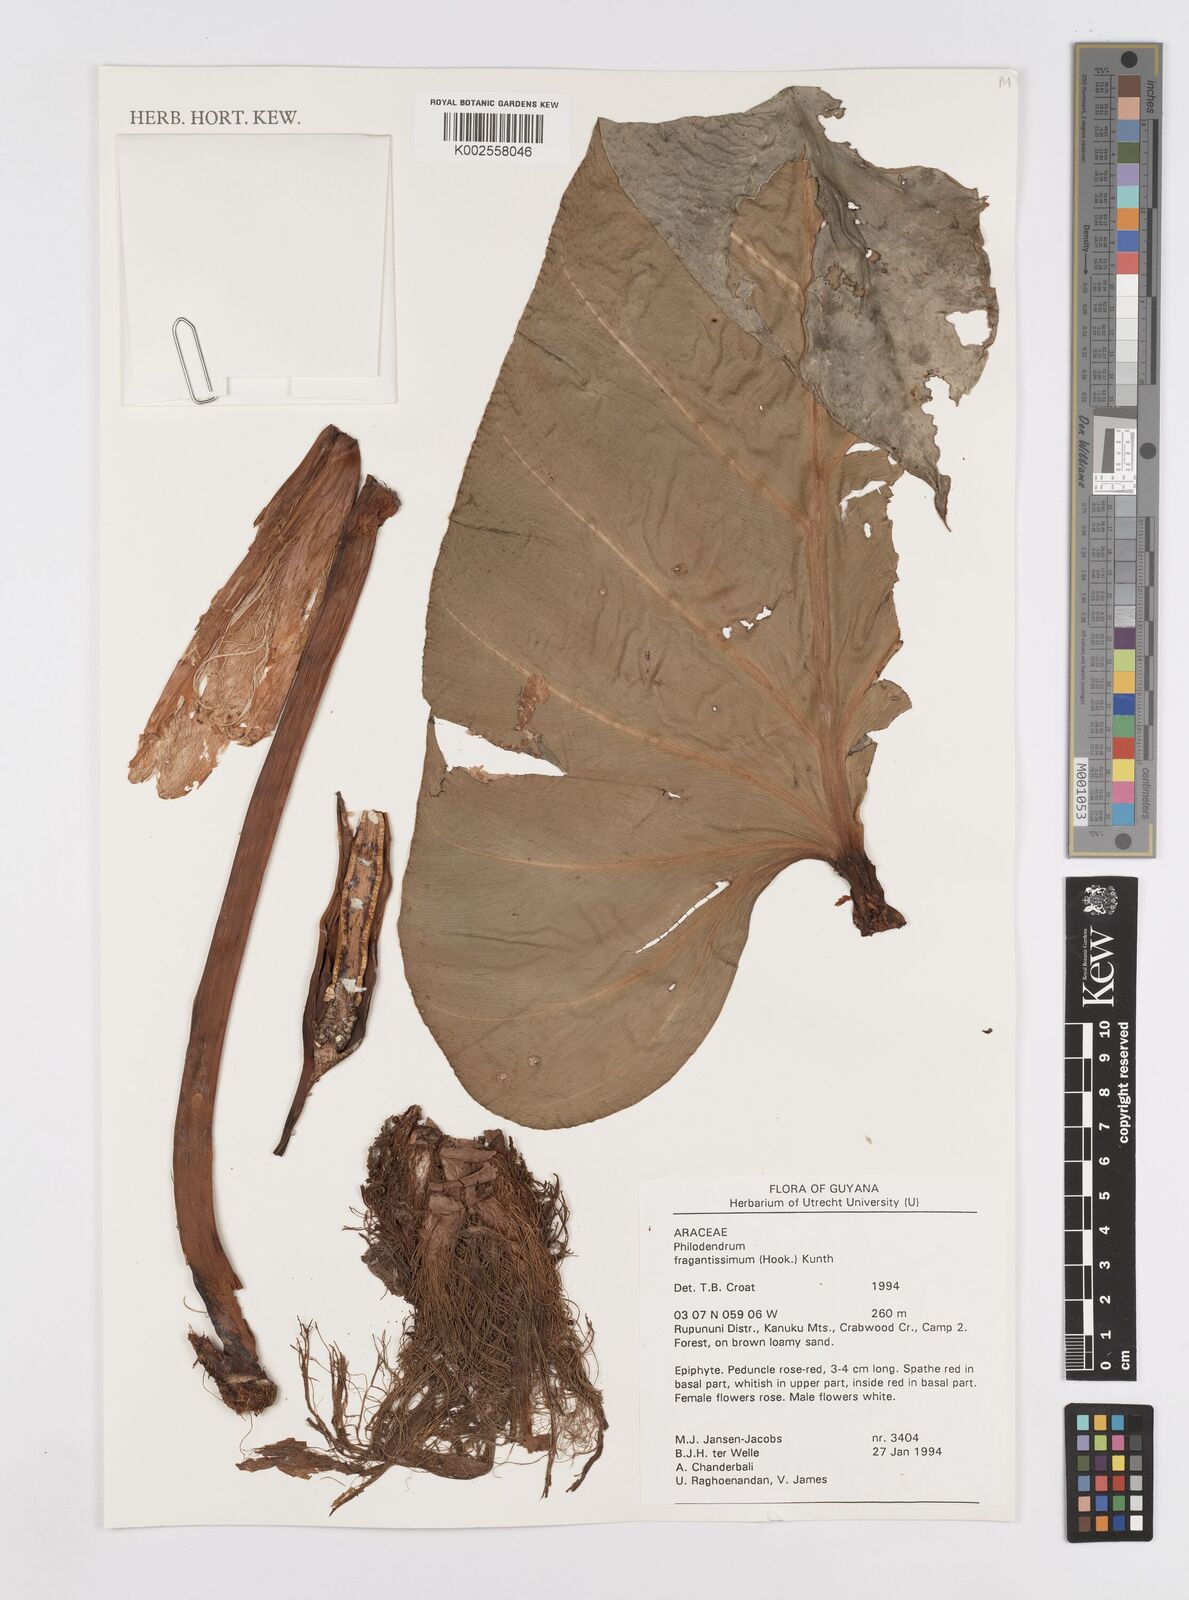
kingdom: Plantae
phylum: Tracheophyta
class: Liliopsida
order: Alismatales
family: Araceae
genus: Philodendron
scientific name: Philodendron fragrantissimum
